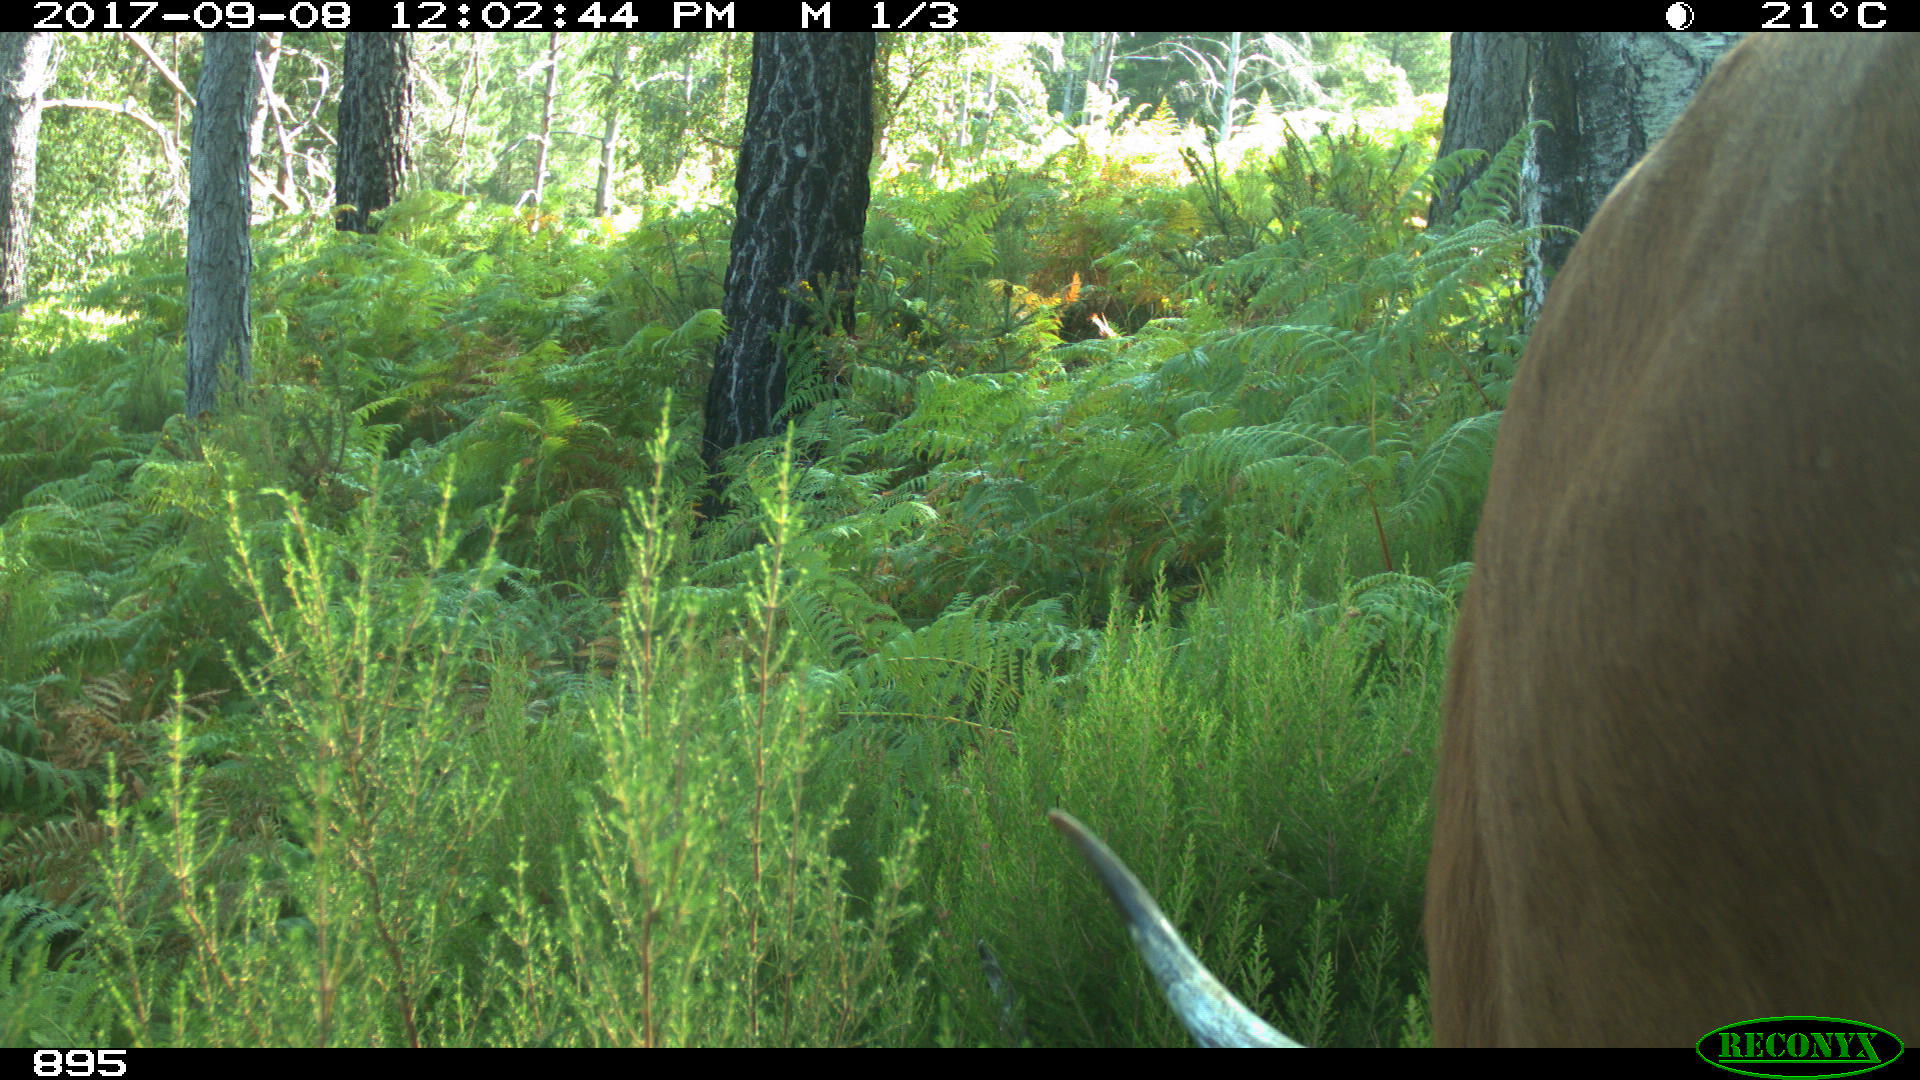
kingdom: Animalia
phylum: Chordata
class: Mammalia
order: Artiodactyla
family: Bovidae
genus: Bos
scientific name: Bos taurus
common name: Domesticated cattle
